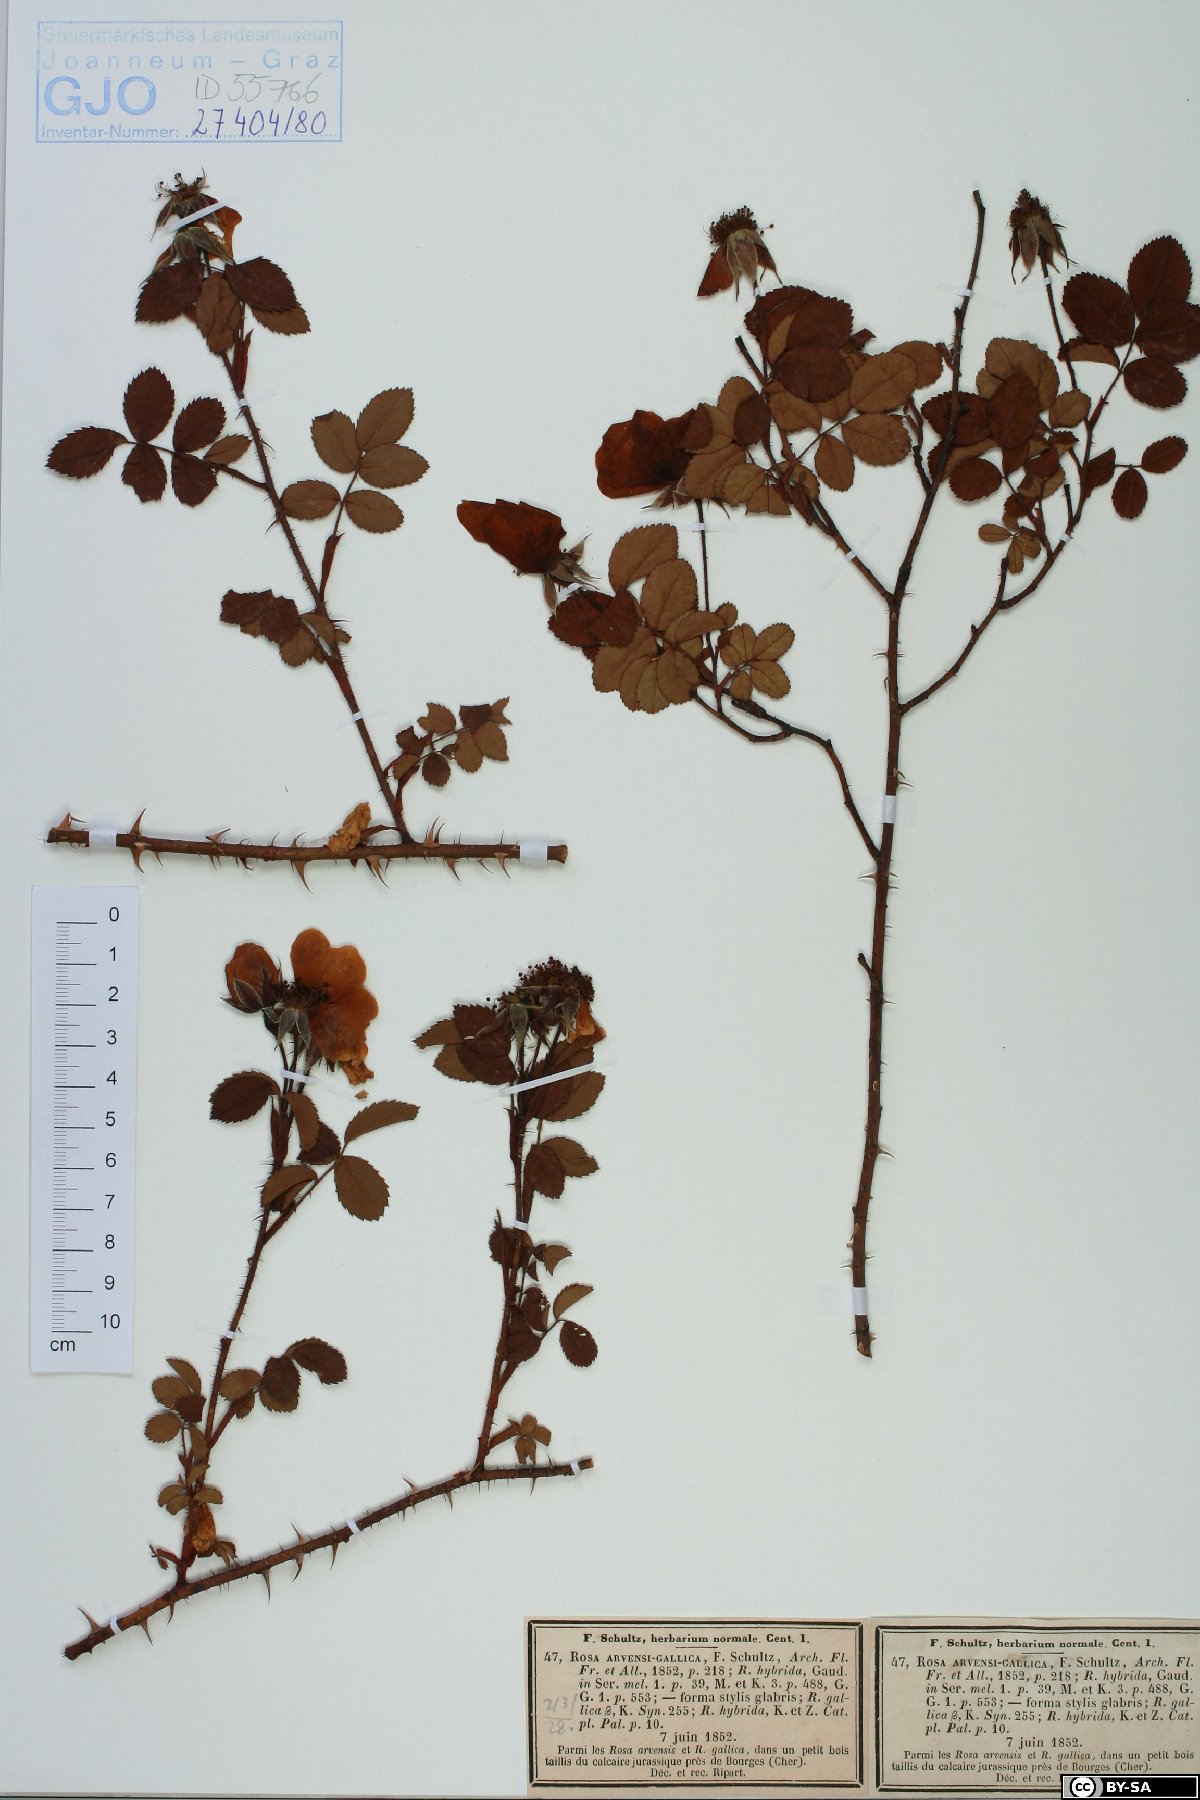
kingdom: Plantae
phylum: Tracheophyta
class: Magnoliopsida
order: Rosales
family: Rosaceae
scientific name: Rosaceae
